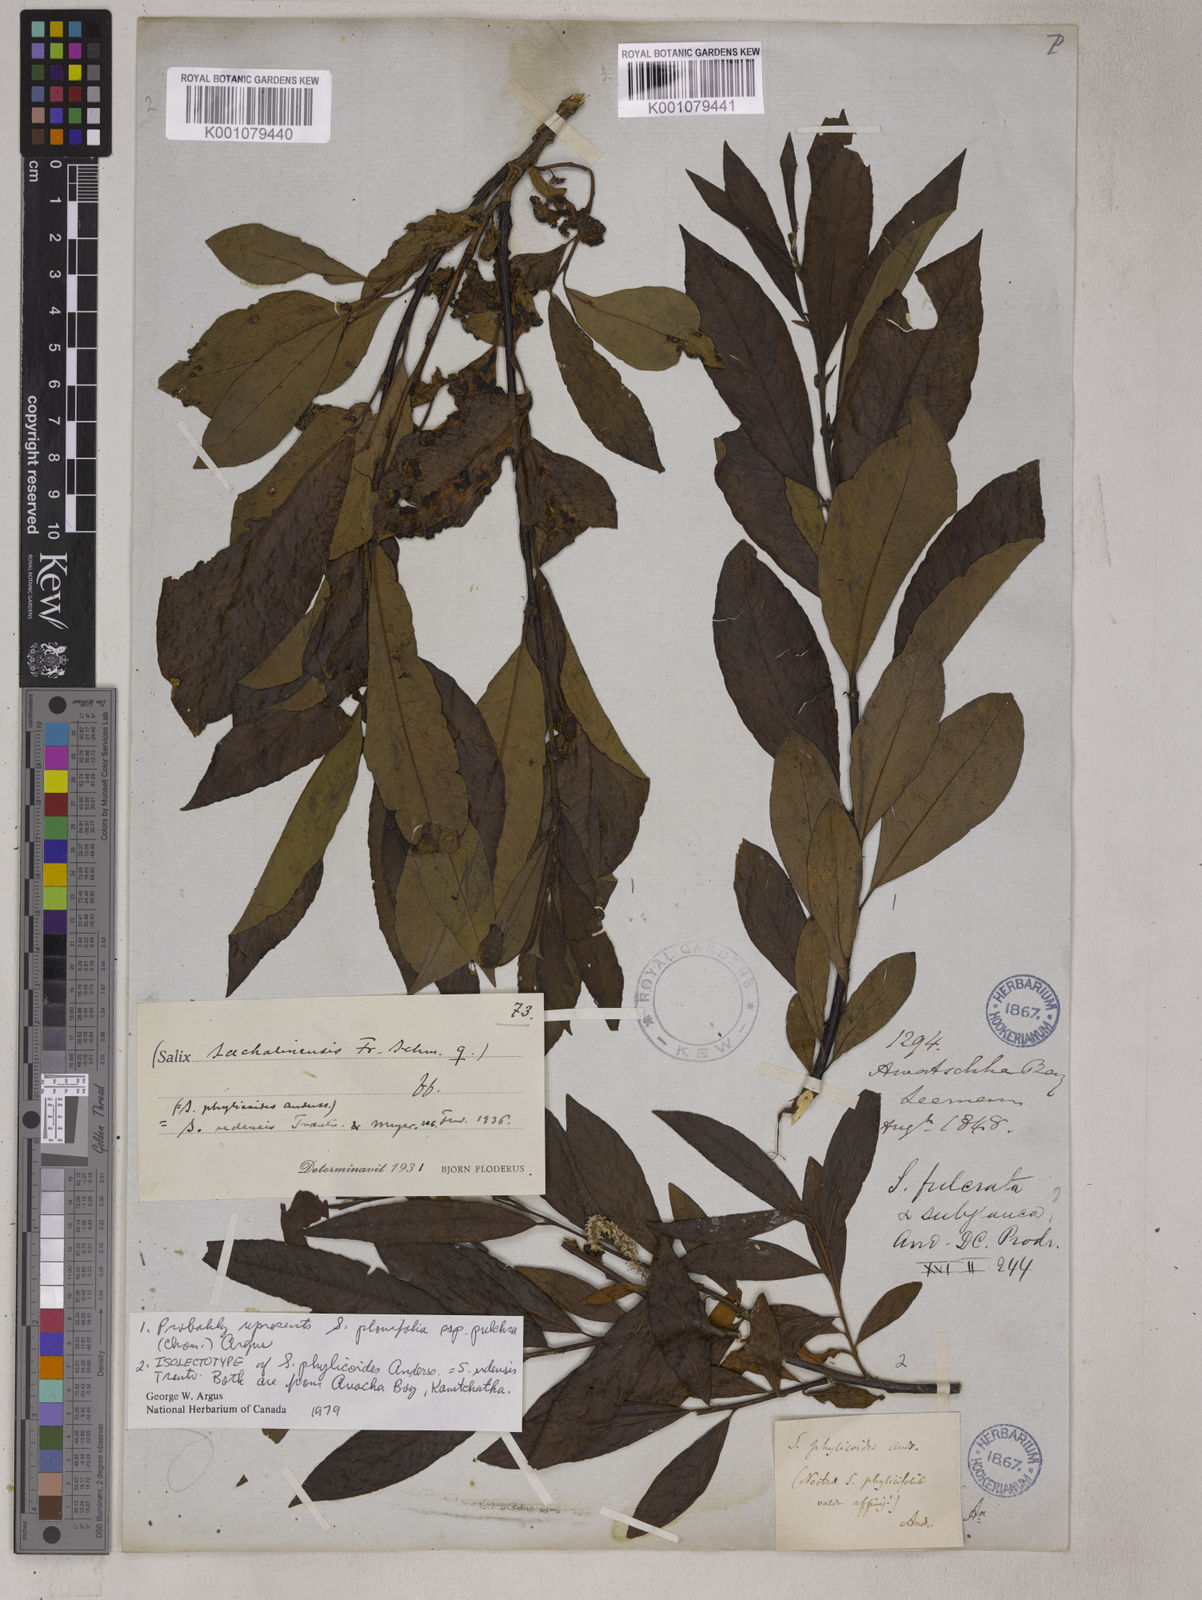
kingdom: Plantae
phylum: Tracheophyta
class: Magnoliopsida
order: Malpighiales
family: Salicaceae
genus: Salix
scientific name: Salix udensis
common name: Sachalin willow
